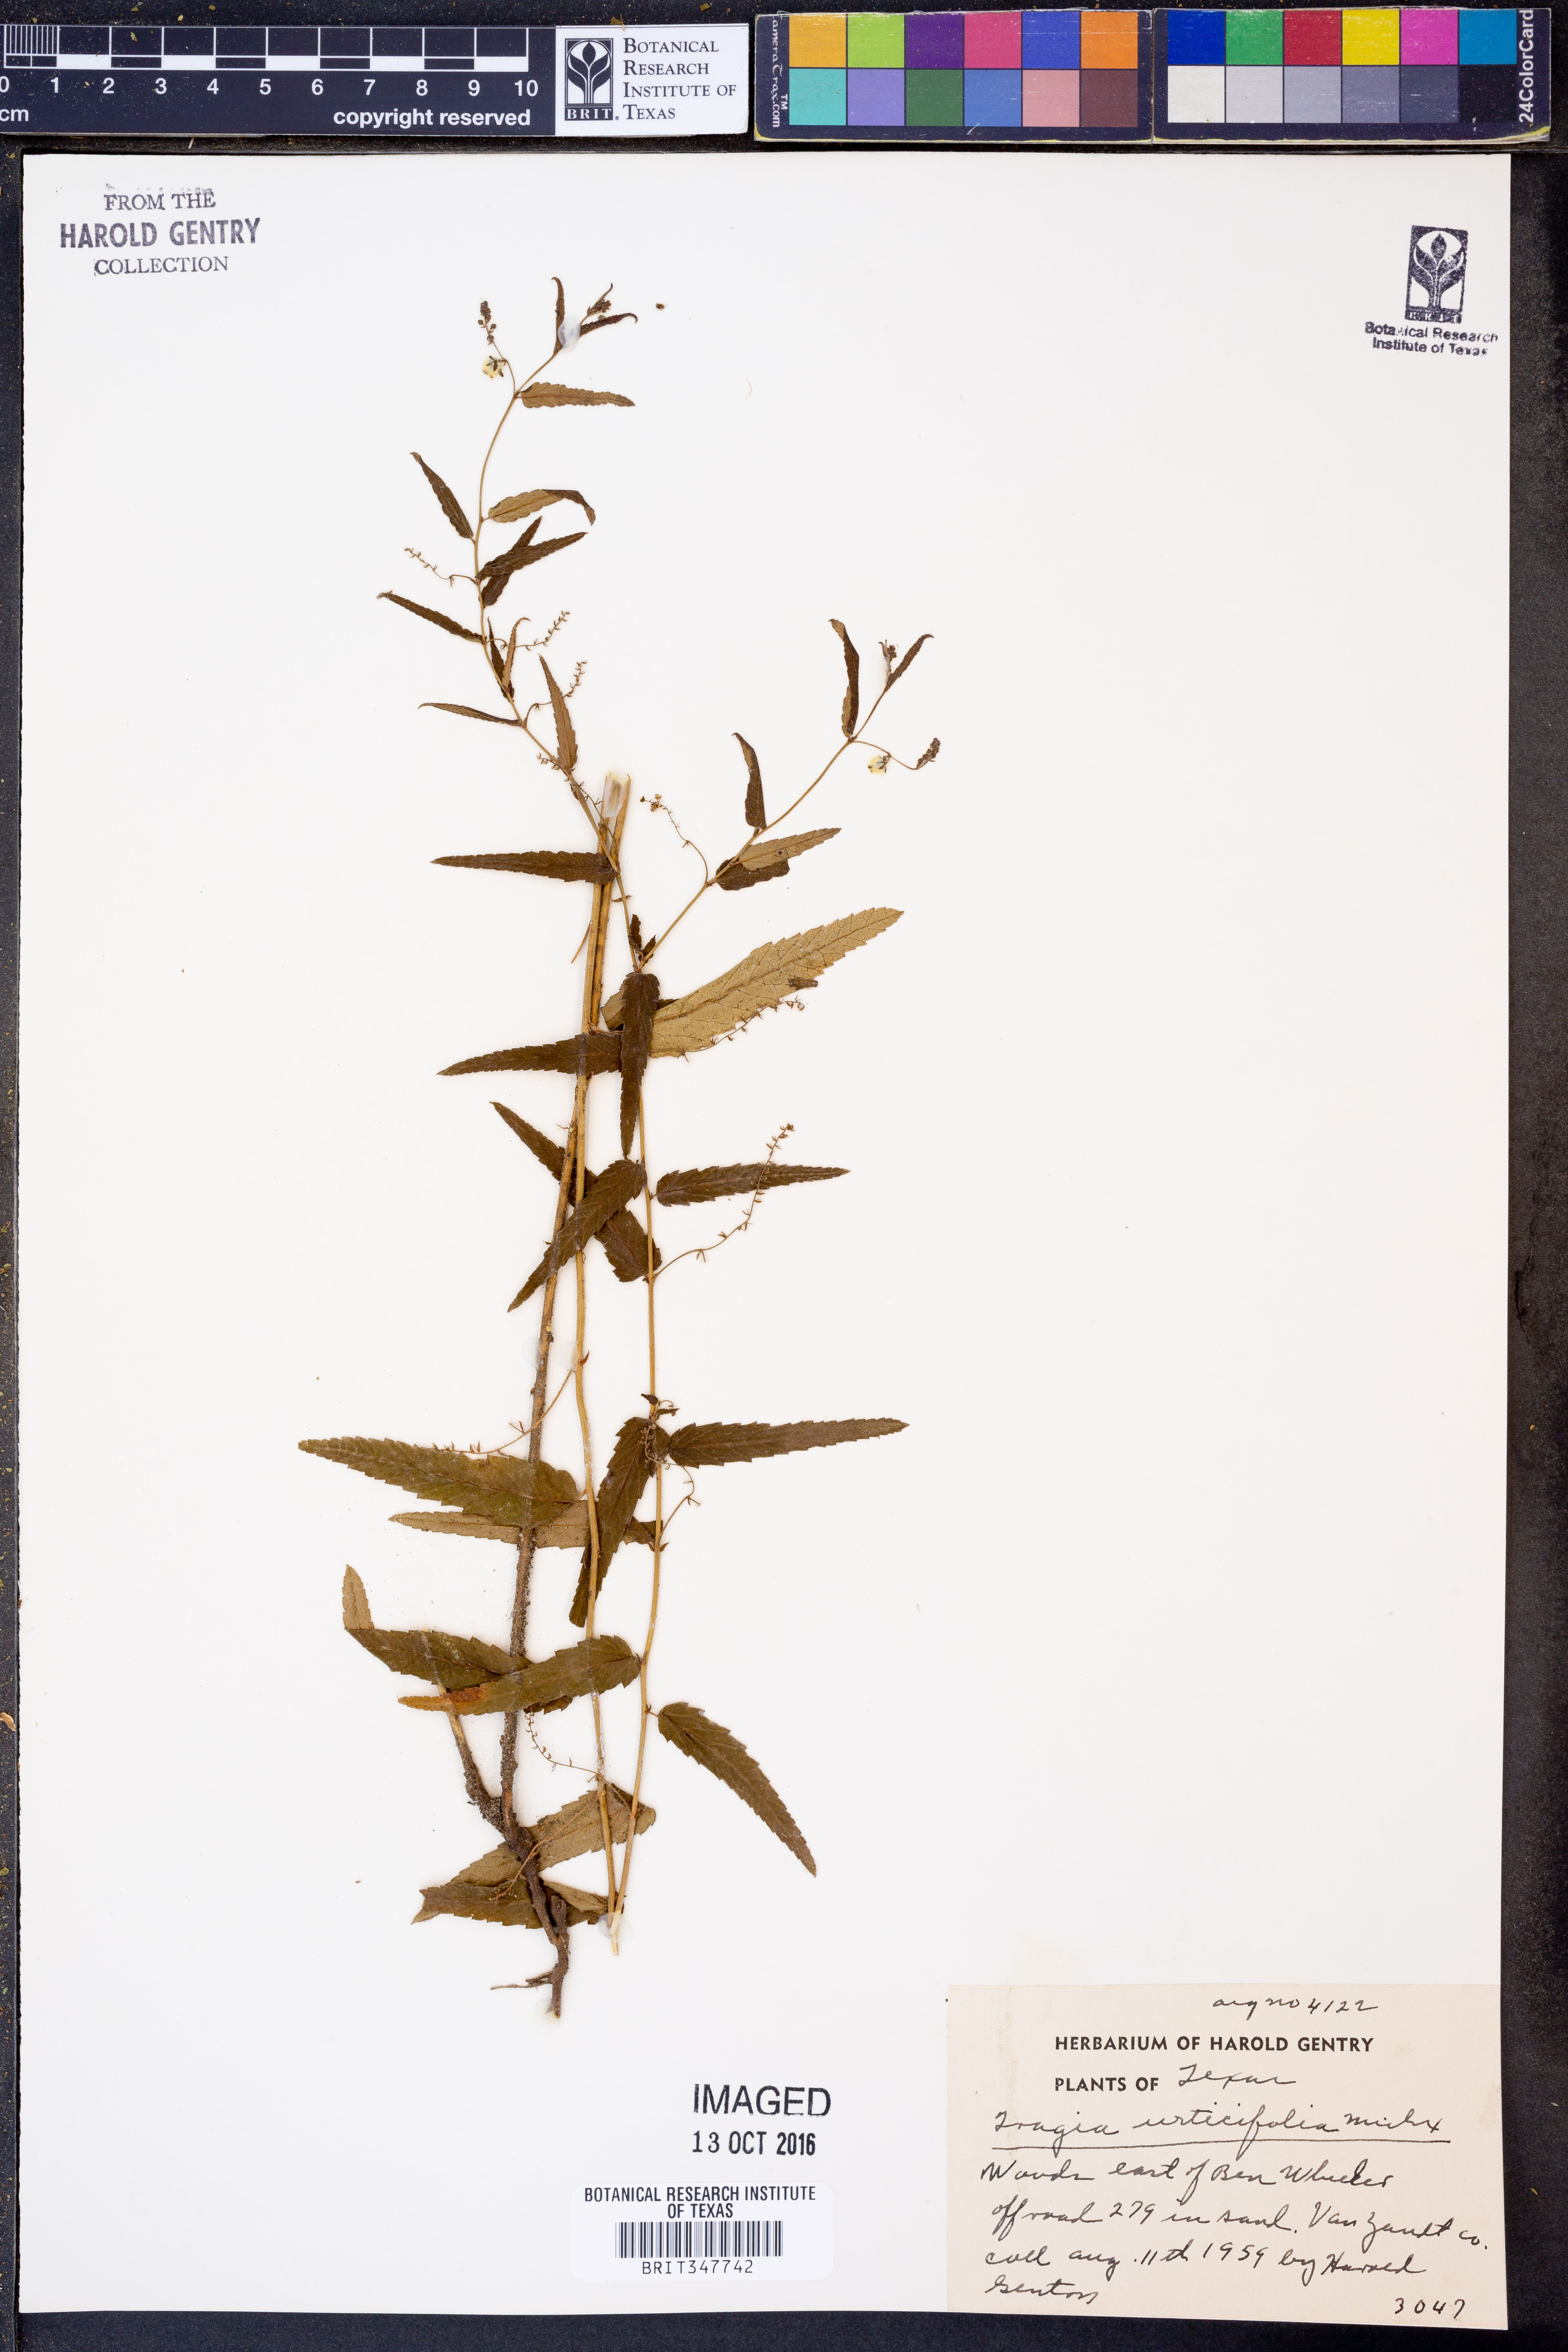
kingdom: Plantae
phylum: Tracheophyta
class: Magnoliopsida
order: Malpighiales
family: Euphorbiaceae
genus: Tragia
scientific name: Tragia urticifolia
